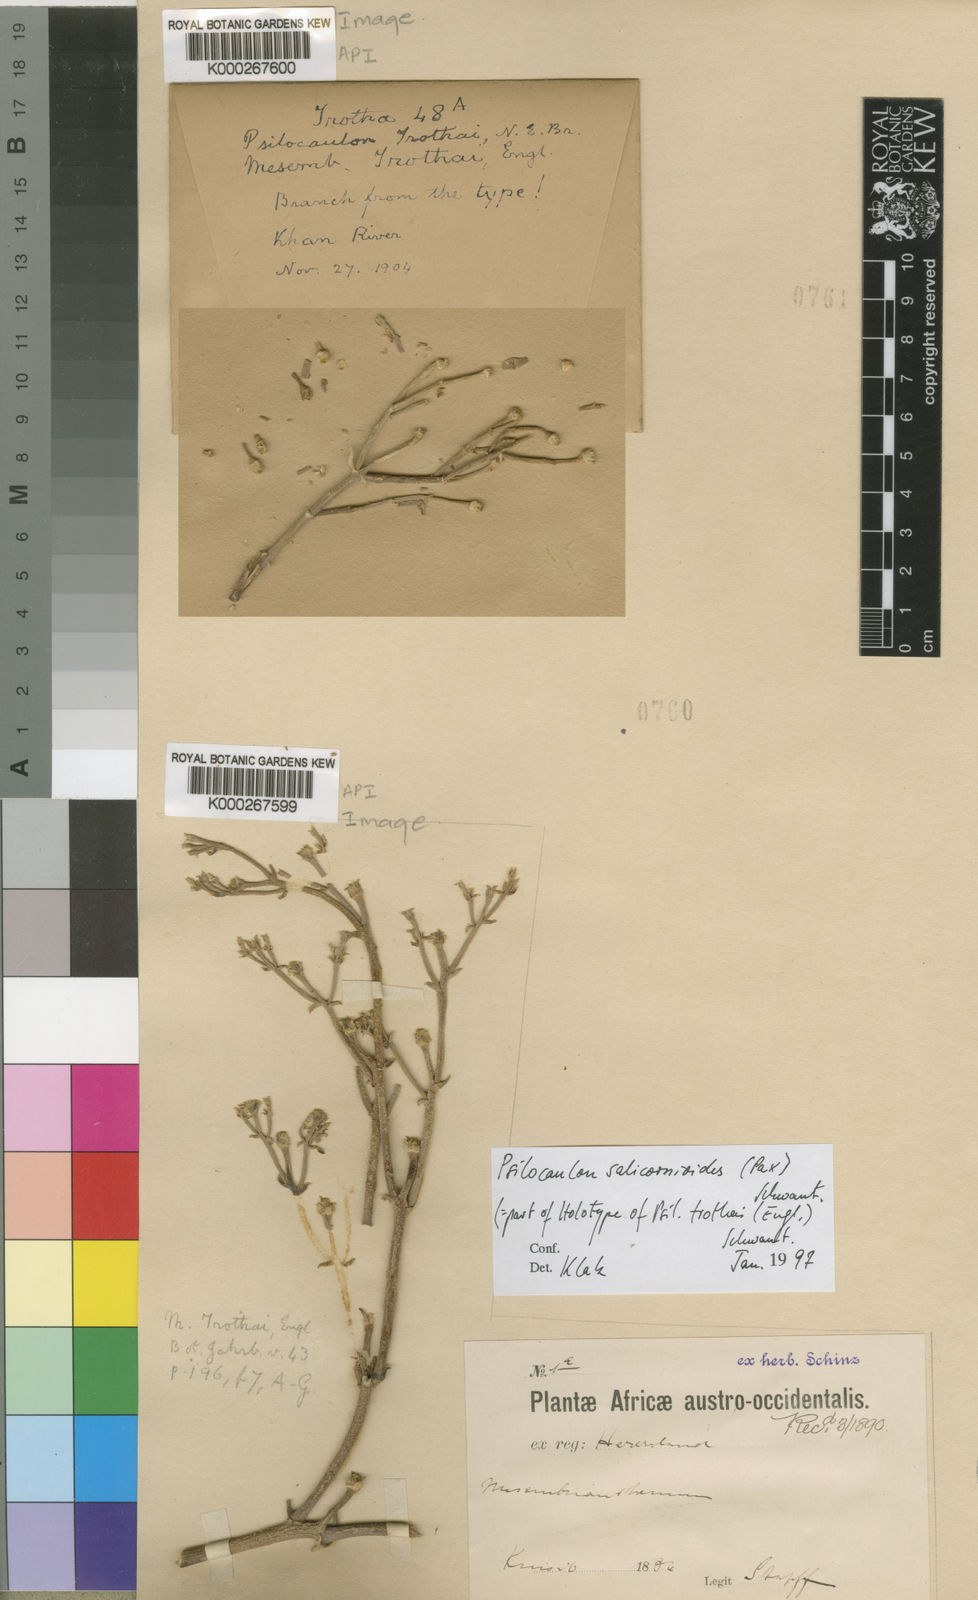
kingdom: Plantae
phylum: Tracheophyta
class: Magnoliopsida
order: Caryophyllales
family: Aizoaceae
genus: Mesembryanthemum
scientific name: Mesembryanthemum
